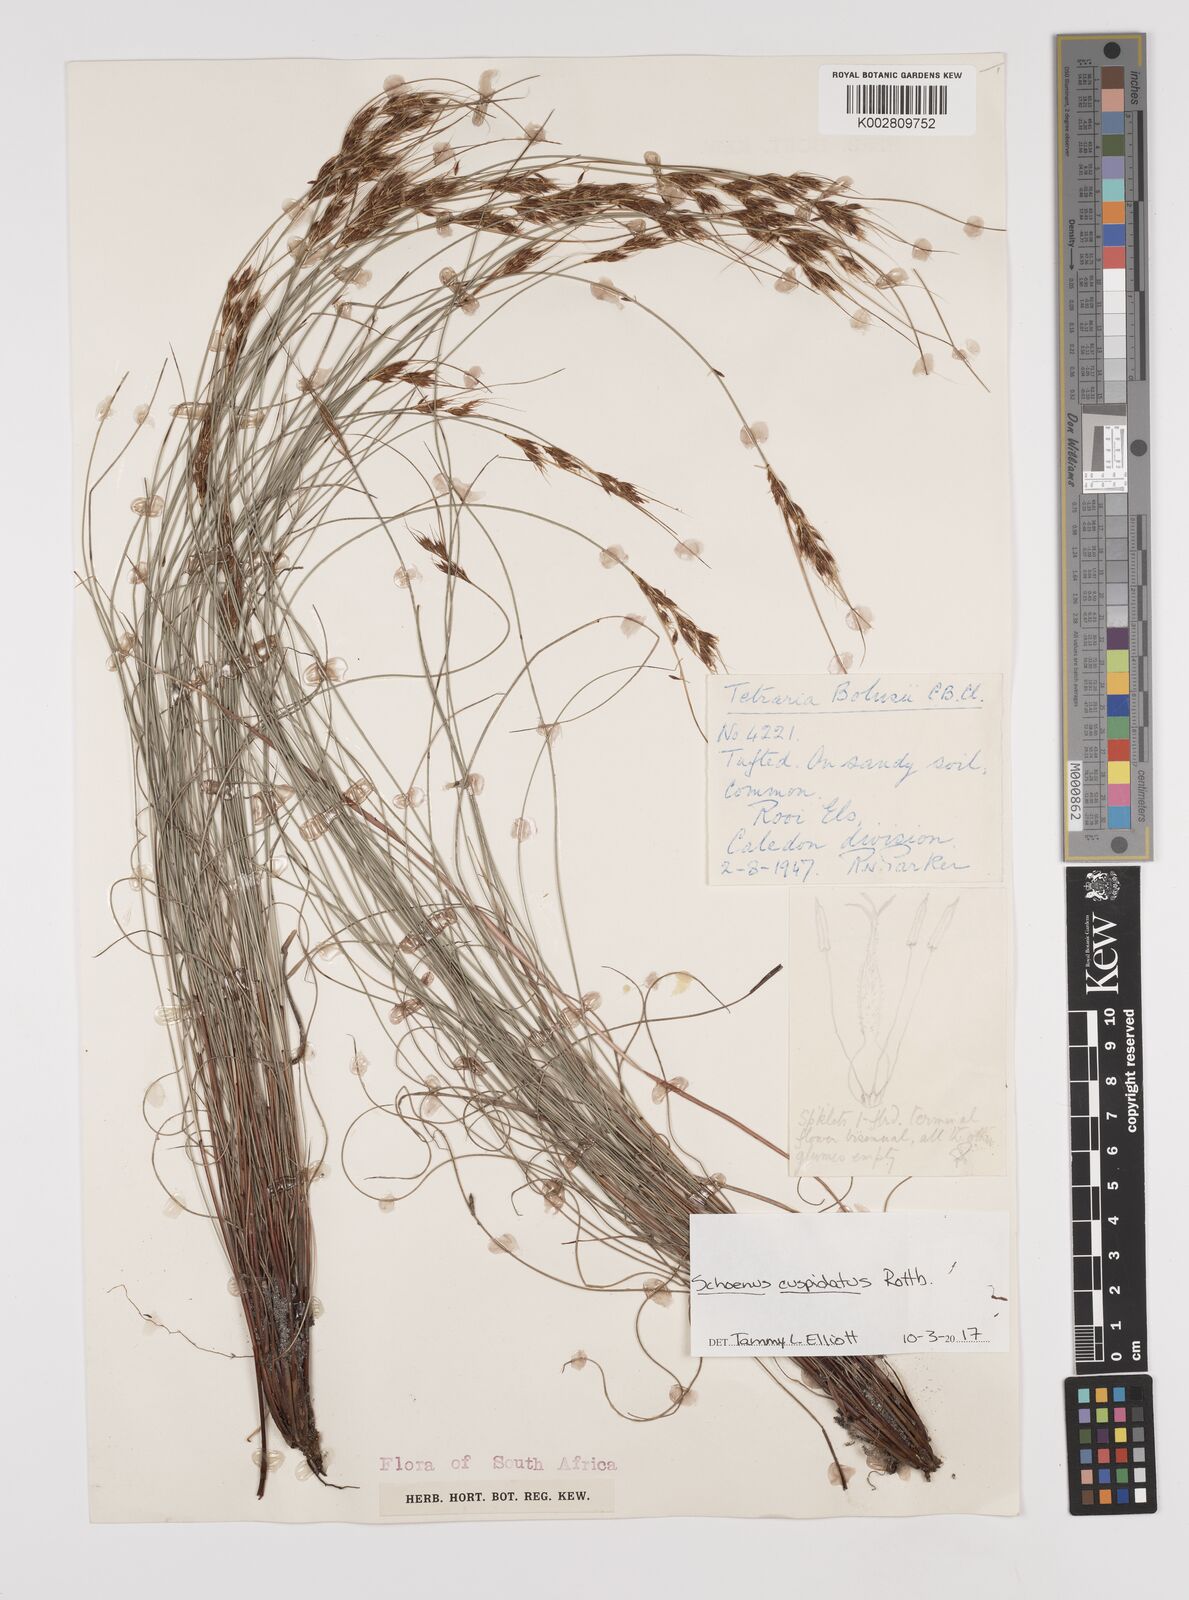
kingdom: Plantae
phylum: Tracheophyta
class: Liliopsida
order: Poales
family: Cyperaceae
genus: Schoenus
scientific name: Schoenus cuspidatus
